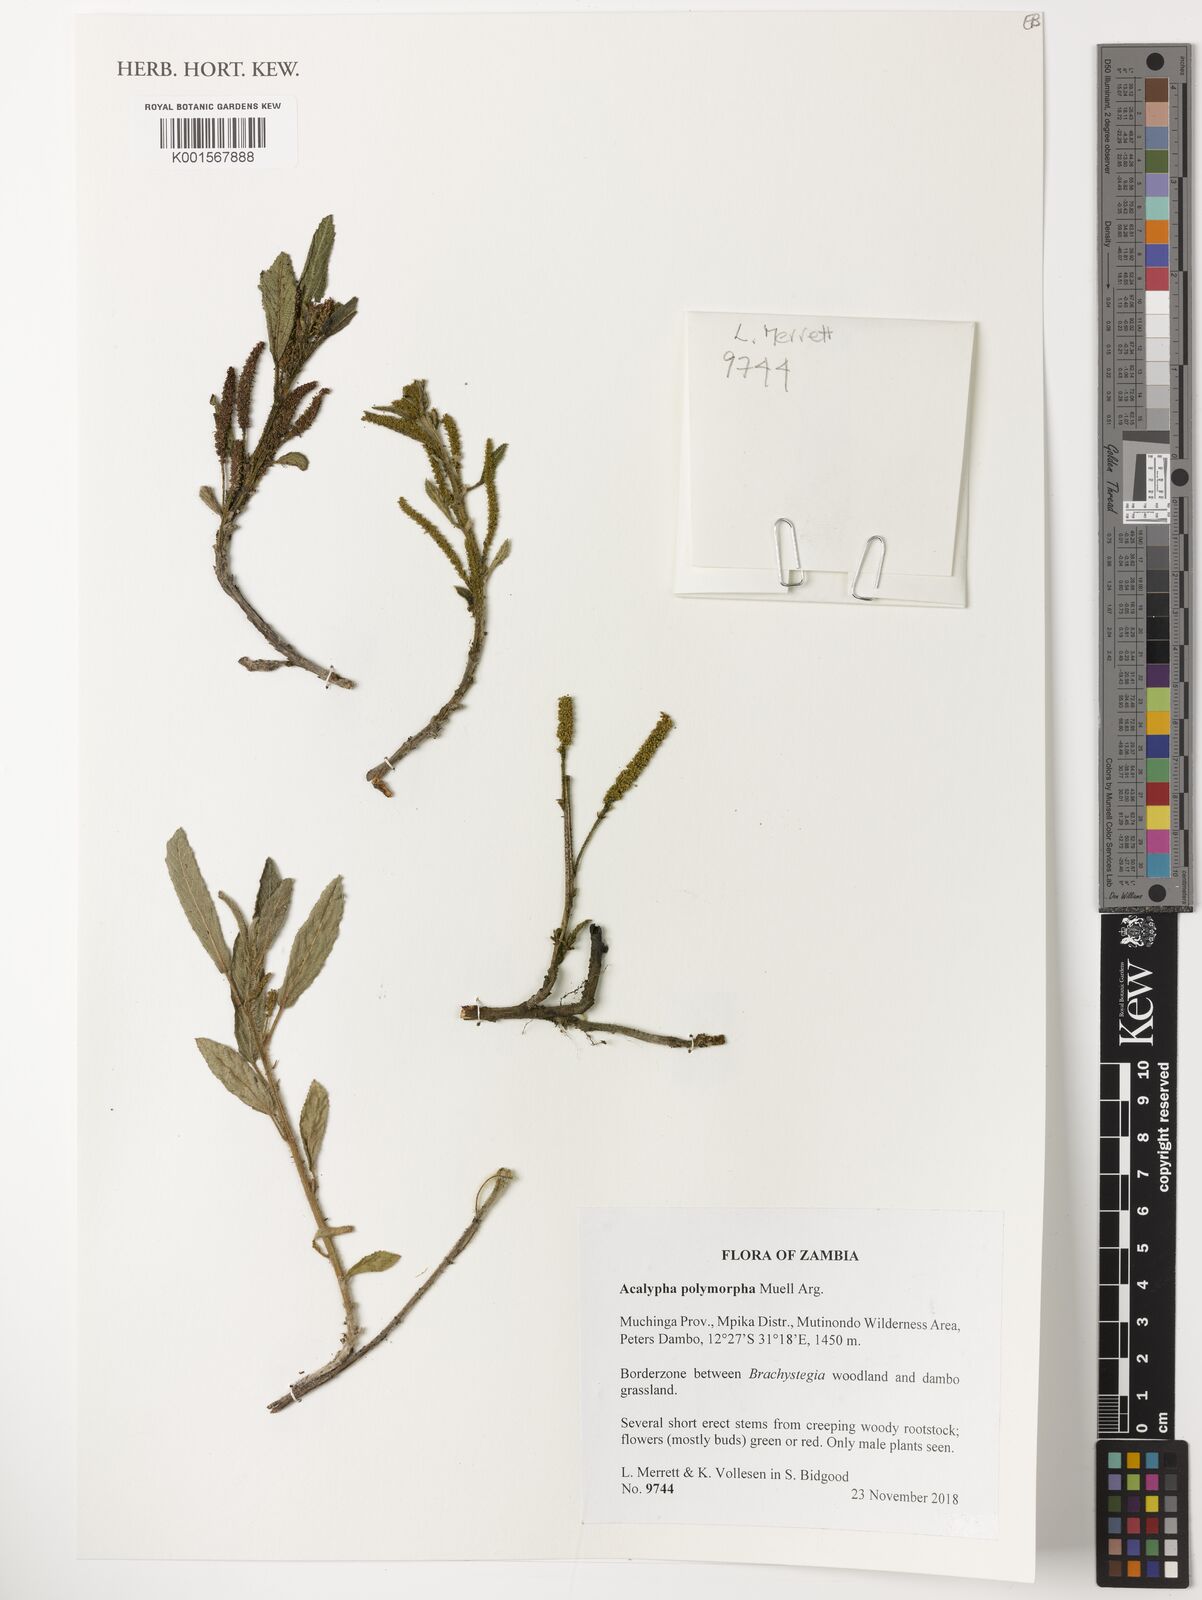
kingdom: Plantae
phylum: Tracheophyta
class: Magnoliopsida
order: Malpighiales
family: Euphorbiaceae
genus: Acalypha
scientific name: Acalypha polymorpha
